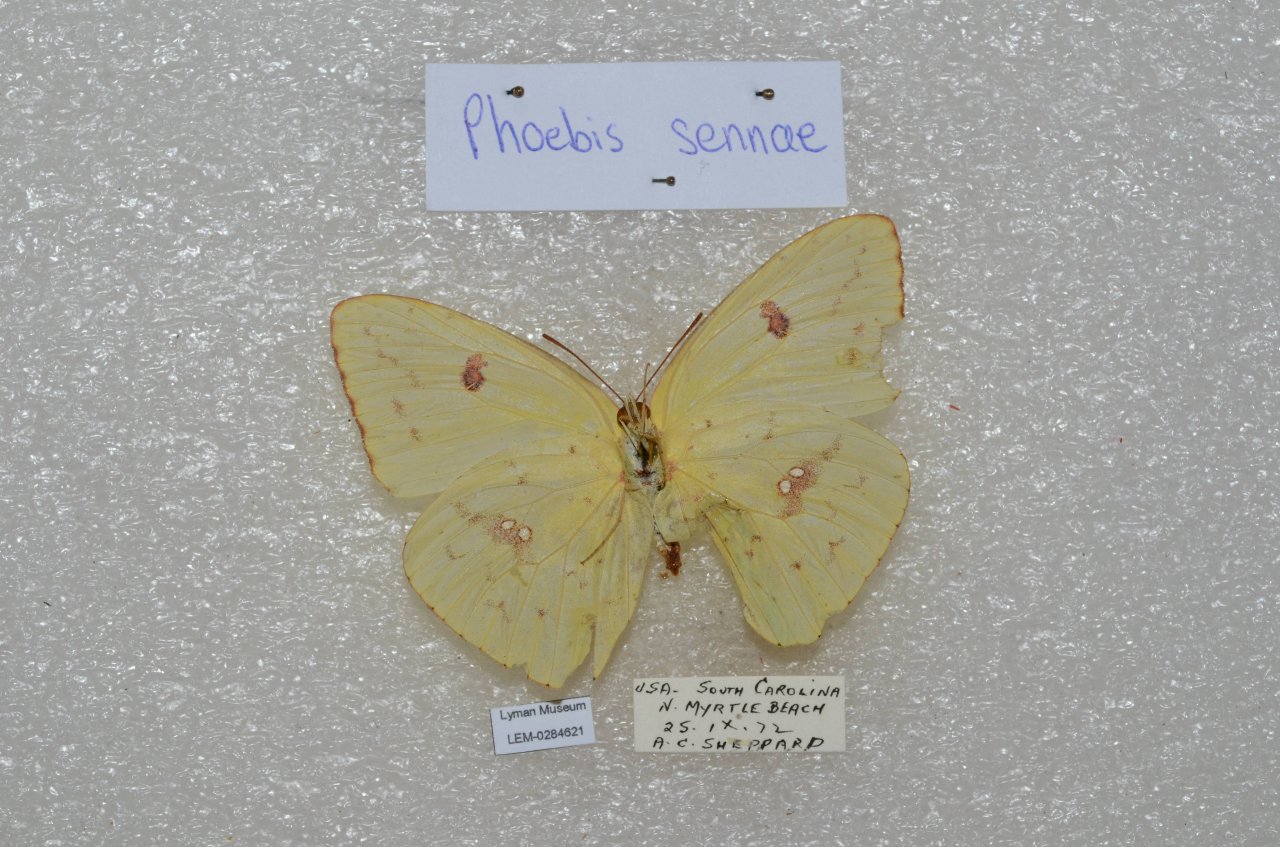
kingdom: Animalia
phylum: Arthropoda
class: Insecta
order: Lepidoptera
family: Pieridae
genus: Phoebis
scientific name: Phoebis sennae
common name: Cloudless Sulphur
